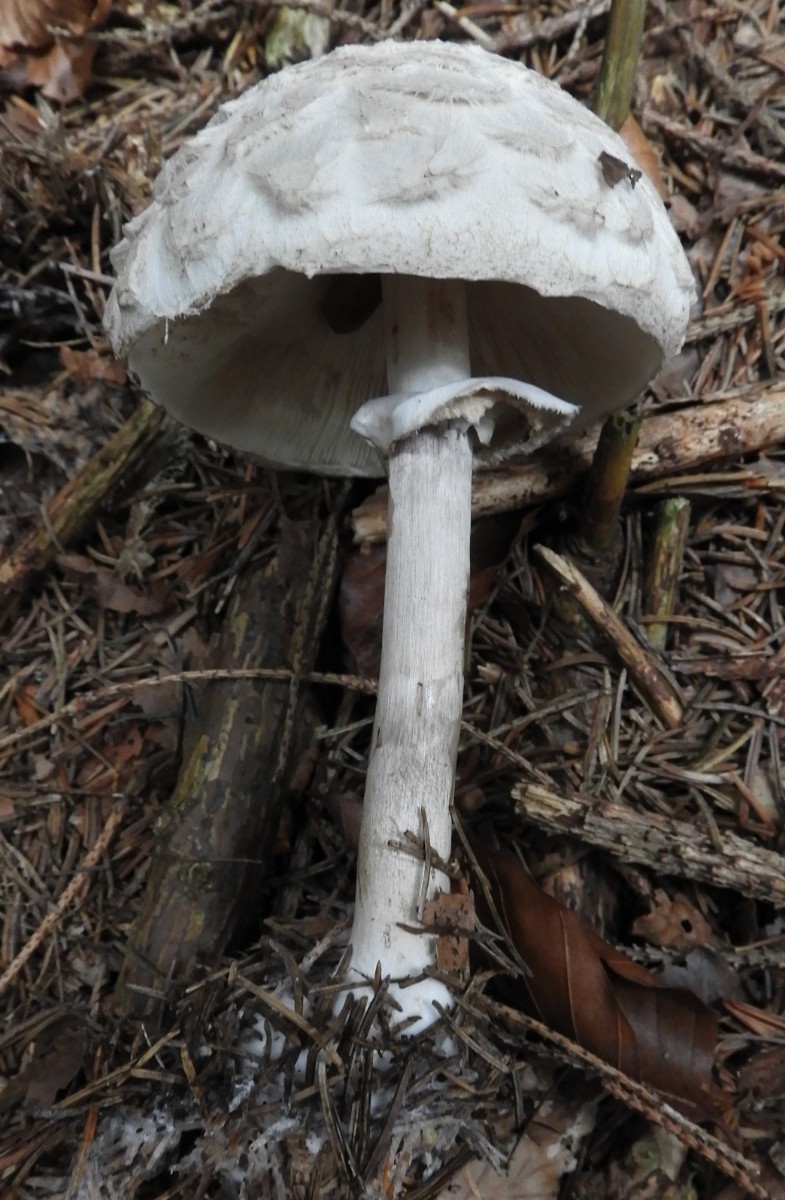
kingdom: Fungi
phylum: Basidiomycota
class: Agaricomycetes
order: Agaricales
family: Agaricaceae
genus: Chlorophyllum
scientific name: Chlorophyllum olivieri
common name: almindelig rabarberhat
